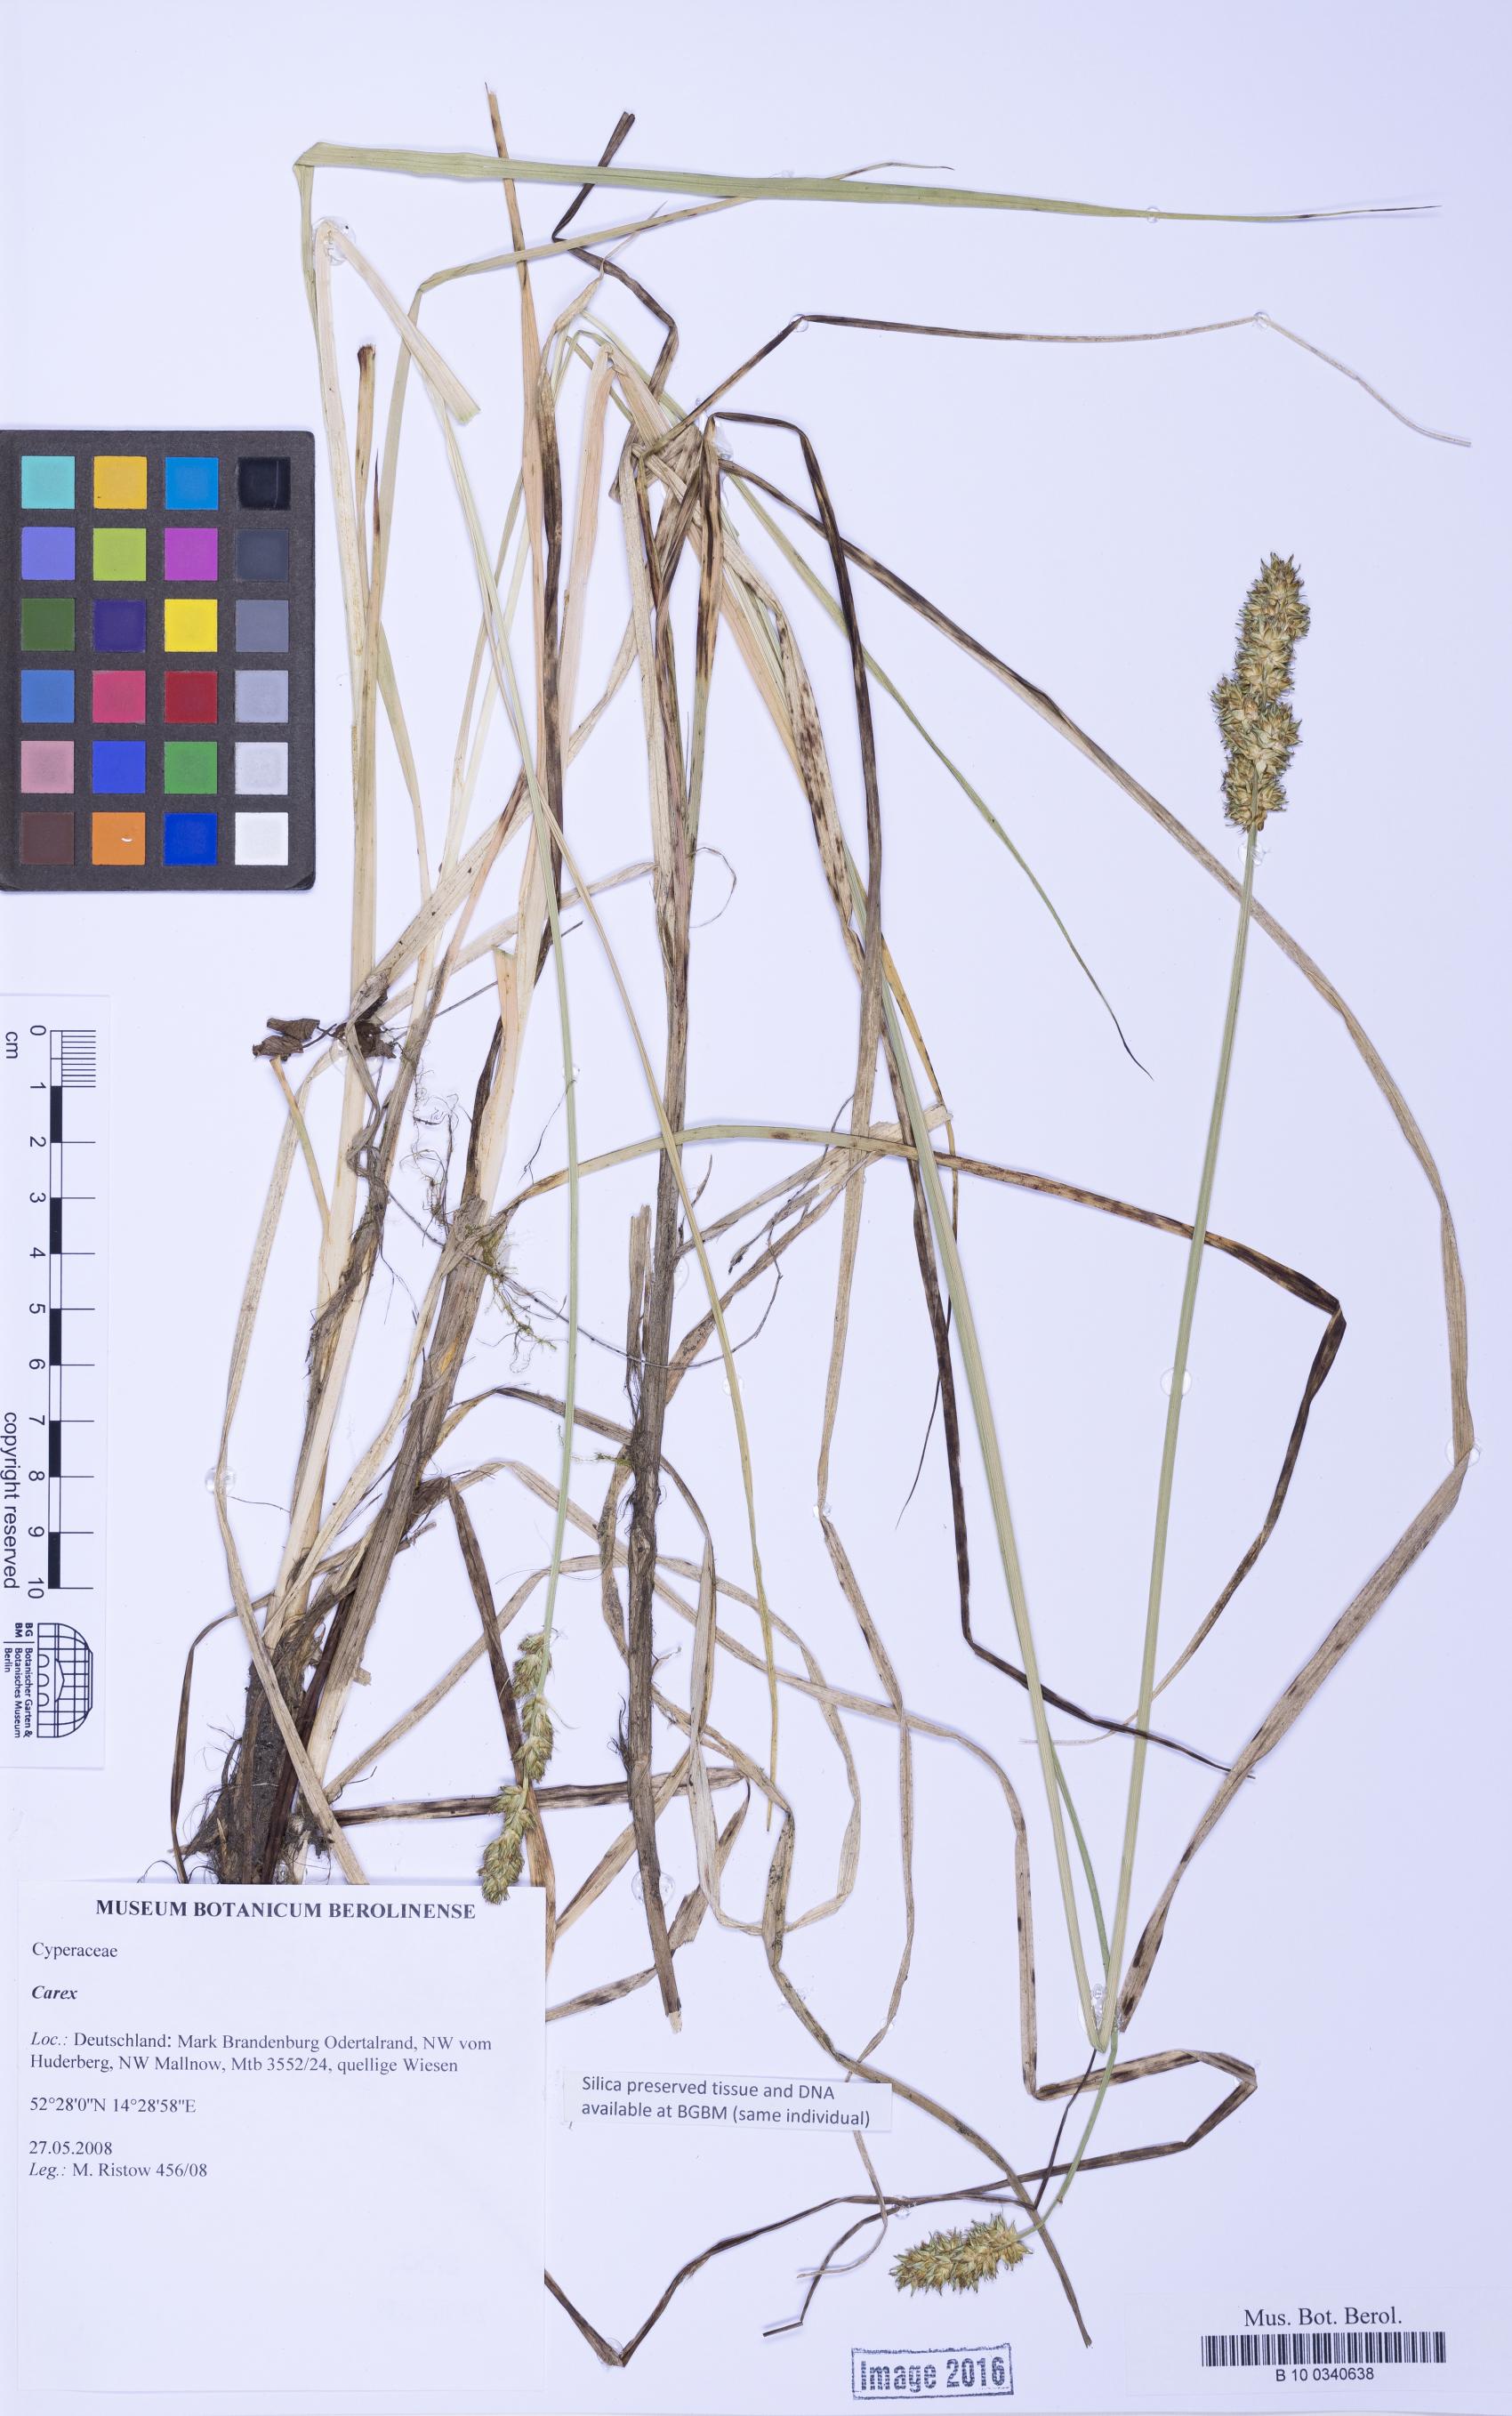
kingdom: Plantae
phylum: Tracheophyta
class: Liliopsida
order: Poales
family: Cyperaceae
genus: Carex
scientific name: Carex
